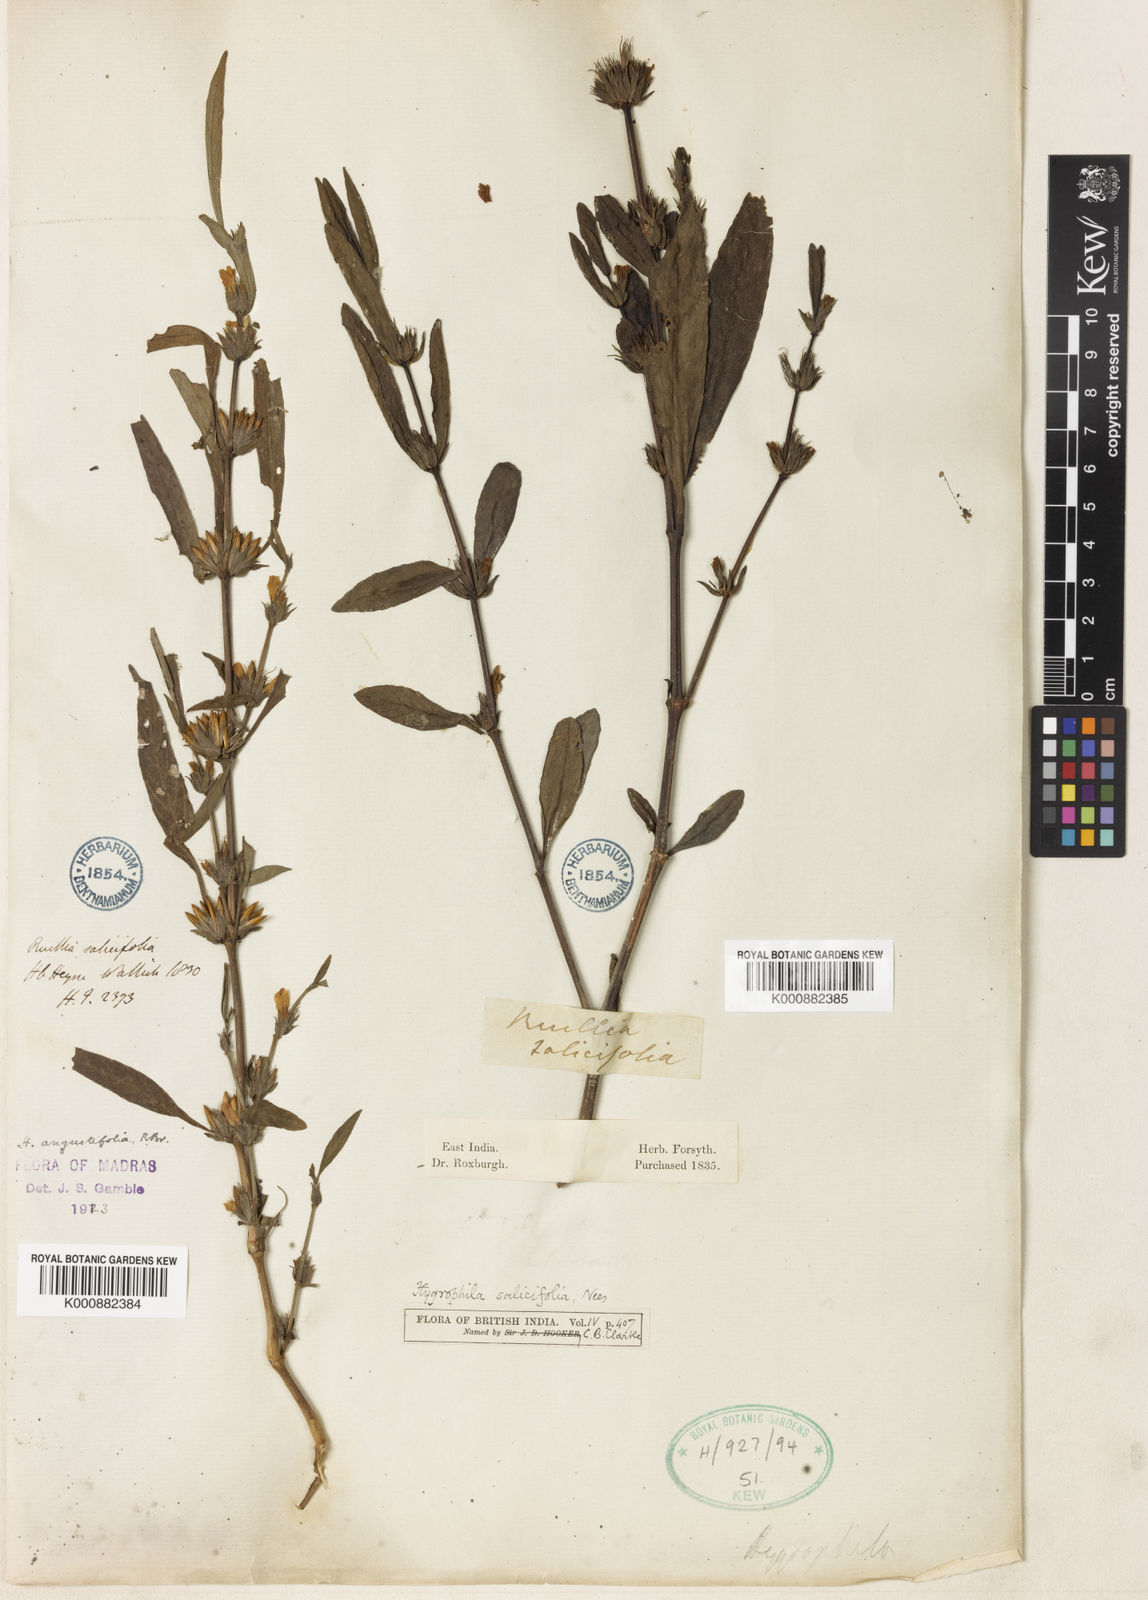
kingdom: Plantae
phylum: Tracheophyta
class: Magnoliopsida
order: Lamiales
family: Acanthaceae
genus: Hygrophila
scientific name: Hygrophila ringens
